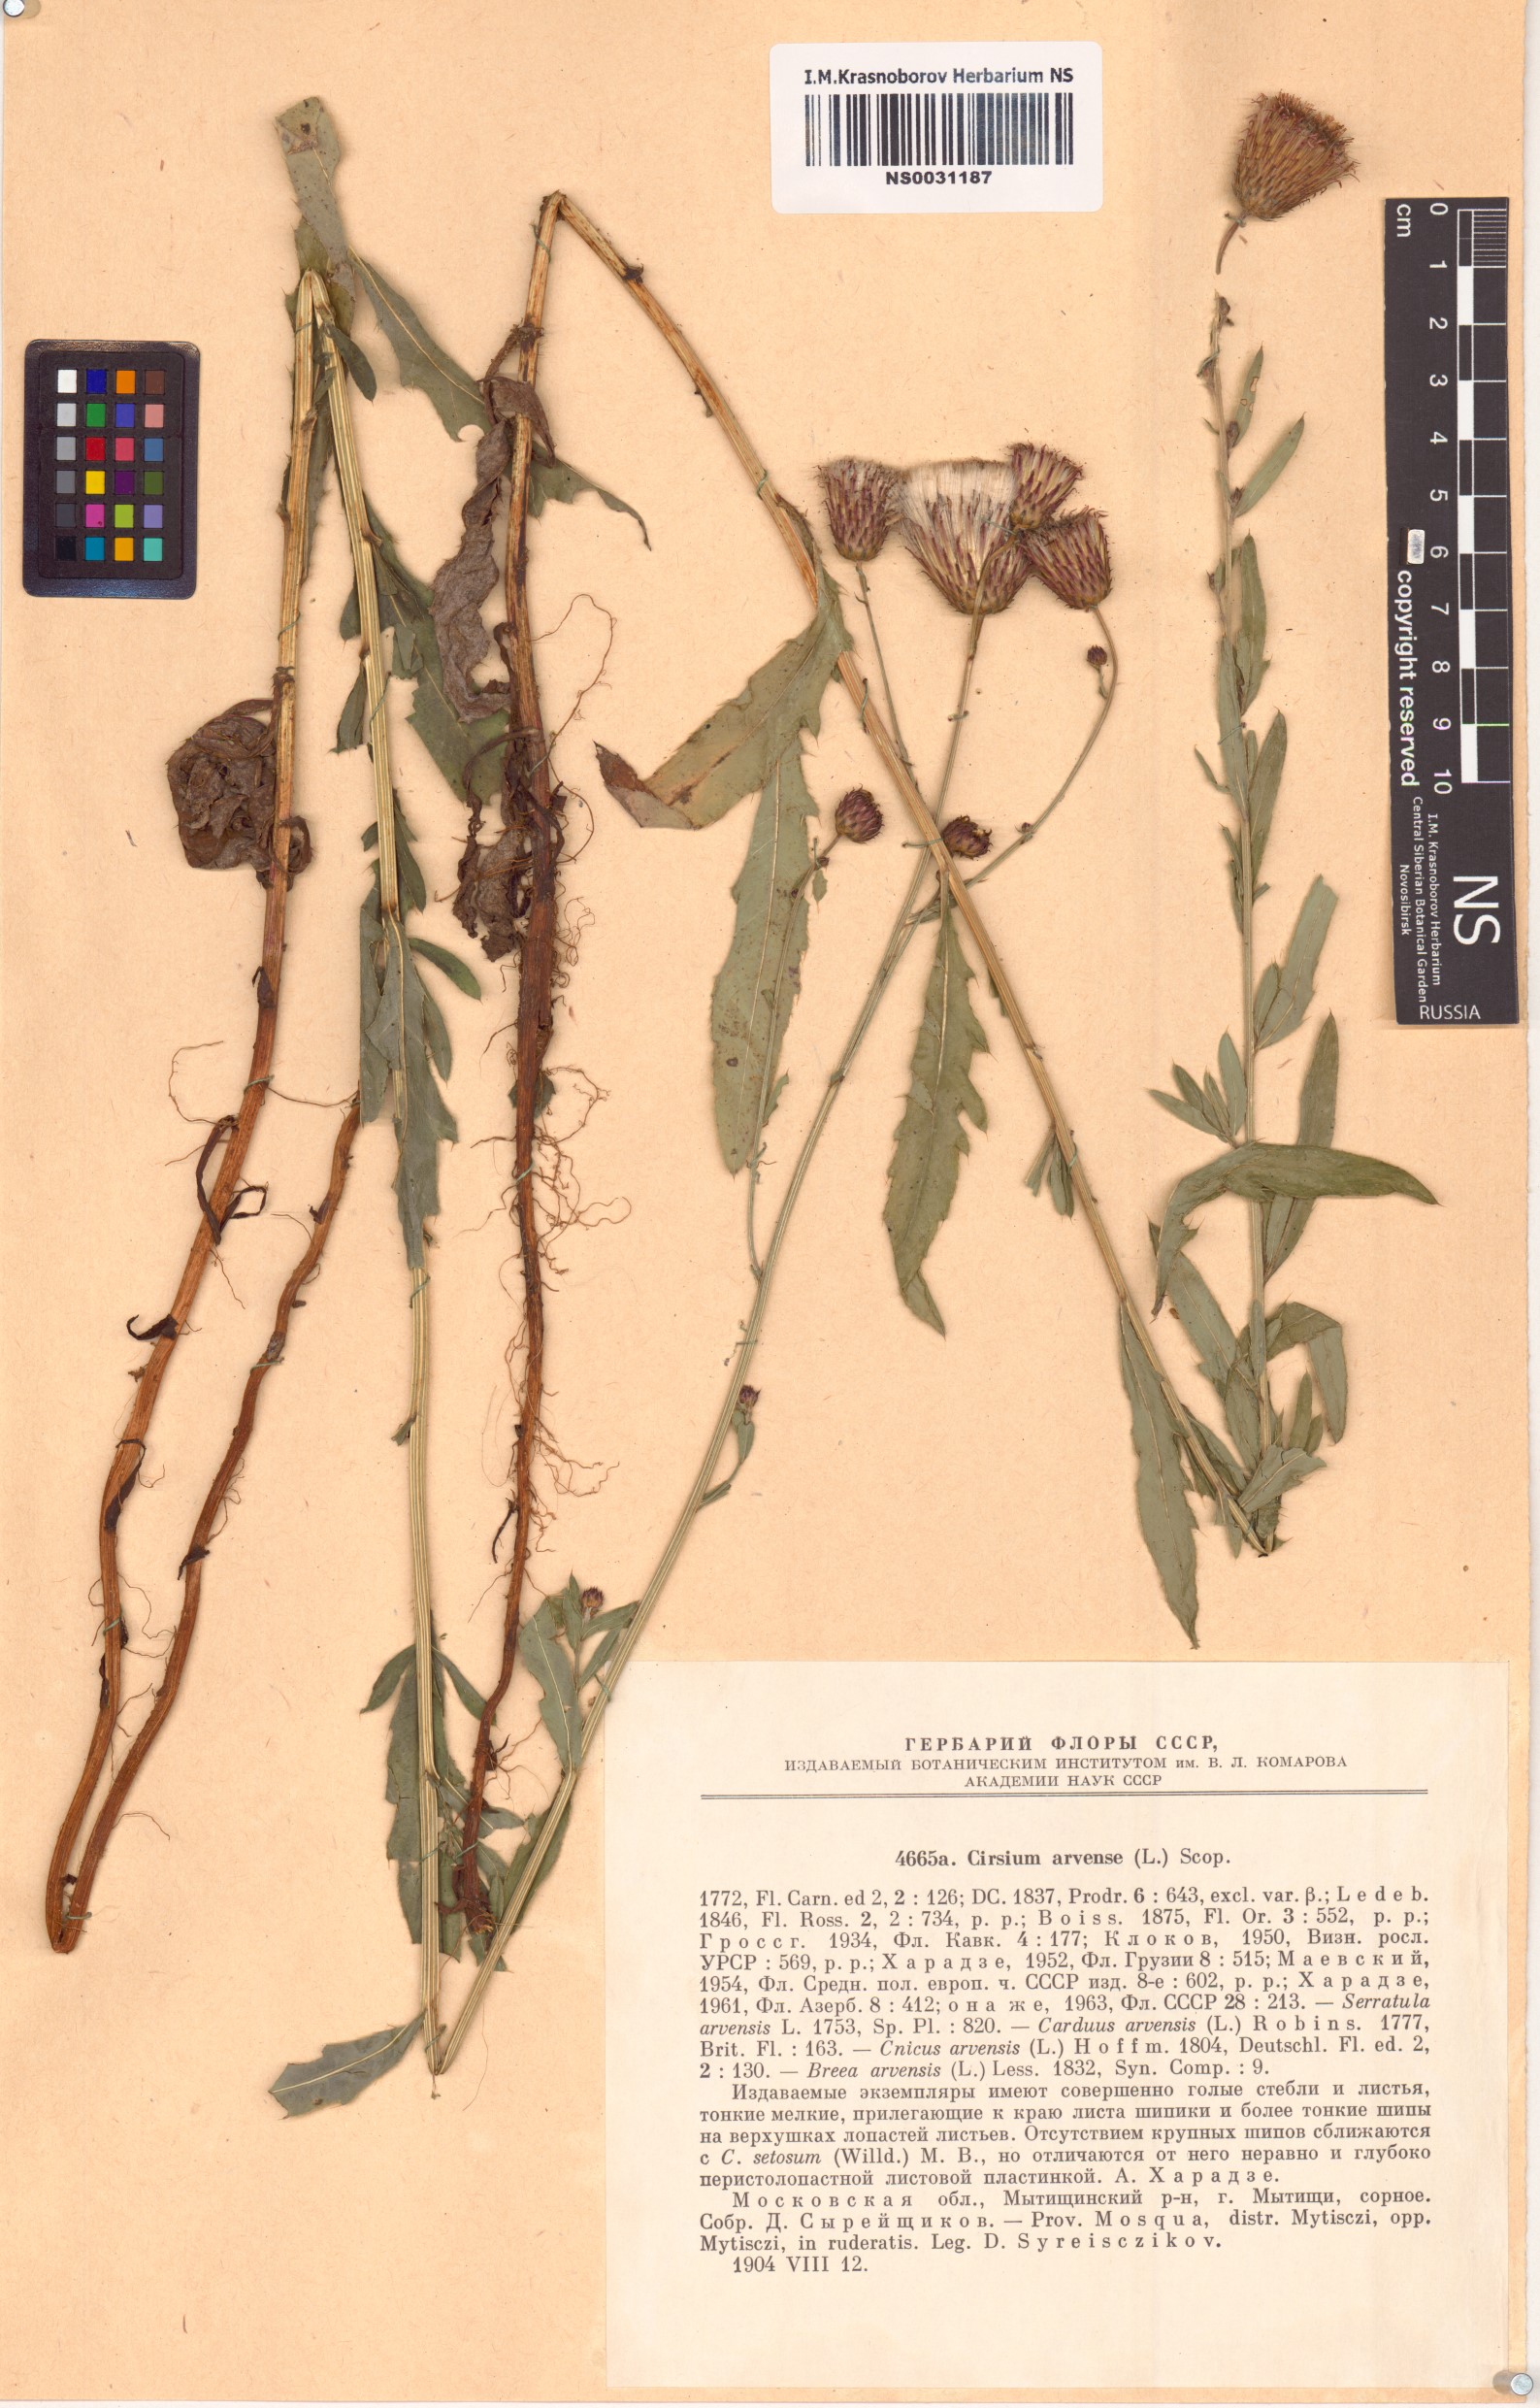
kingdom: Plantae
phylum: Tracheophyta
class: Magnoliopsida
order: Asterales
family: Asteraceae
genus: Cirsium
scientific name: Cirsium arvense
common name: Creeping thistle
